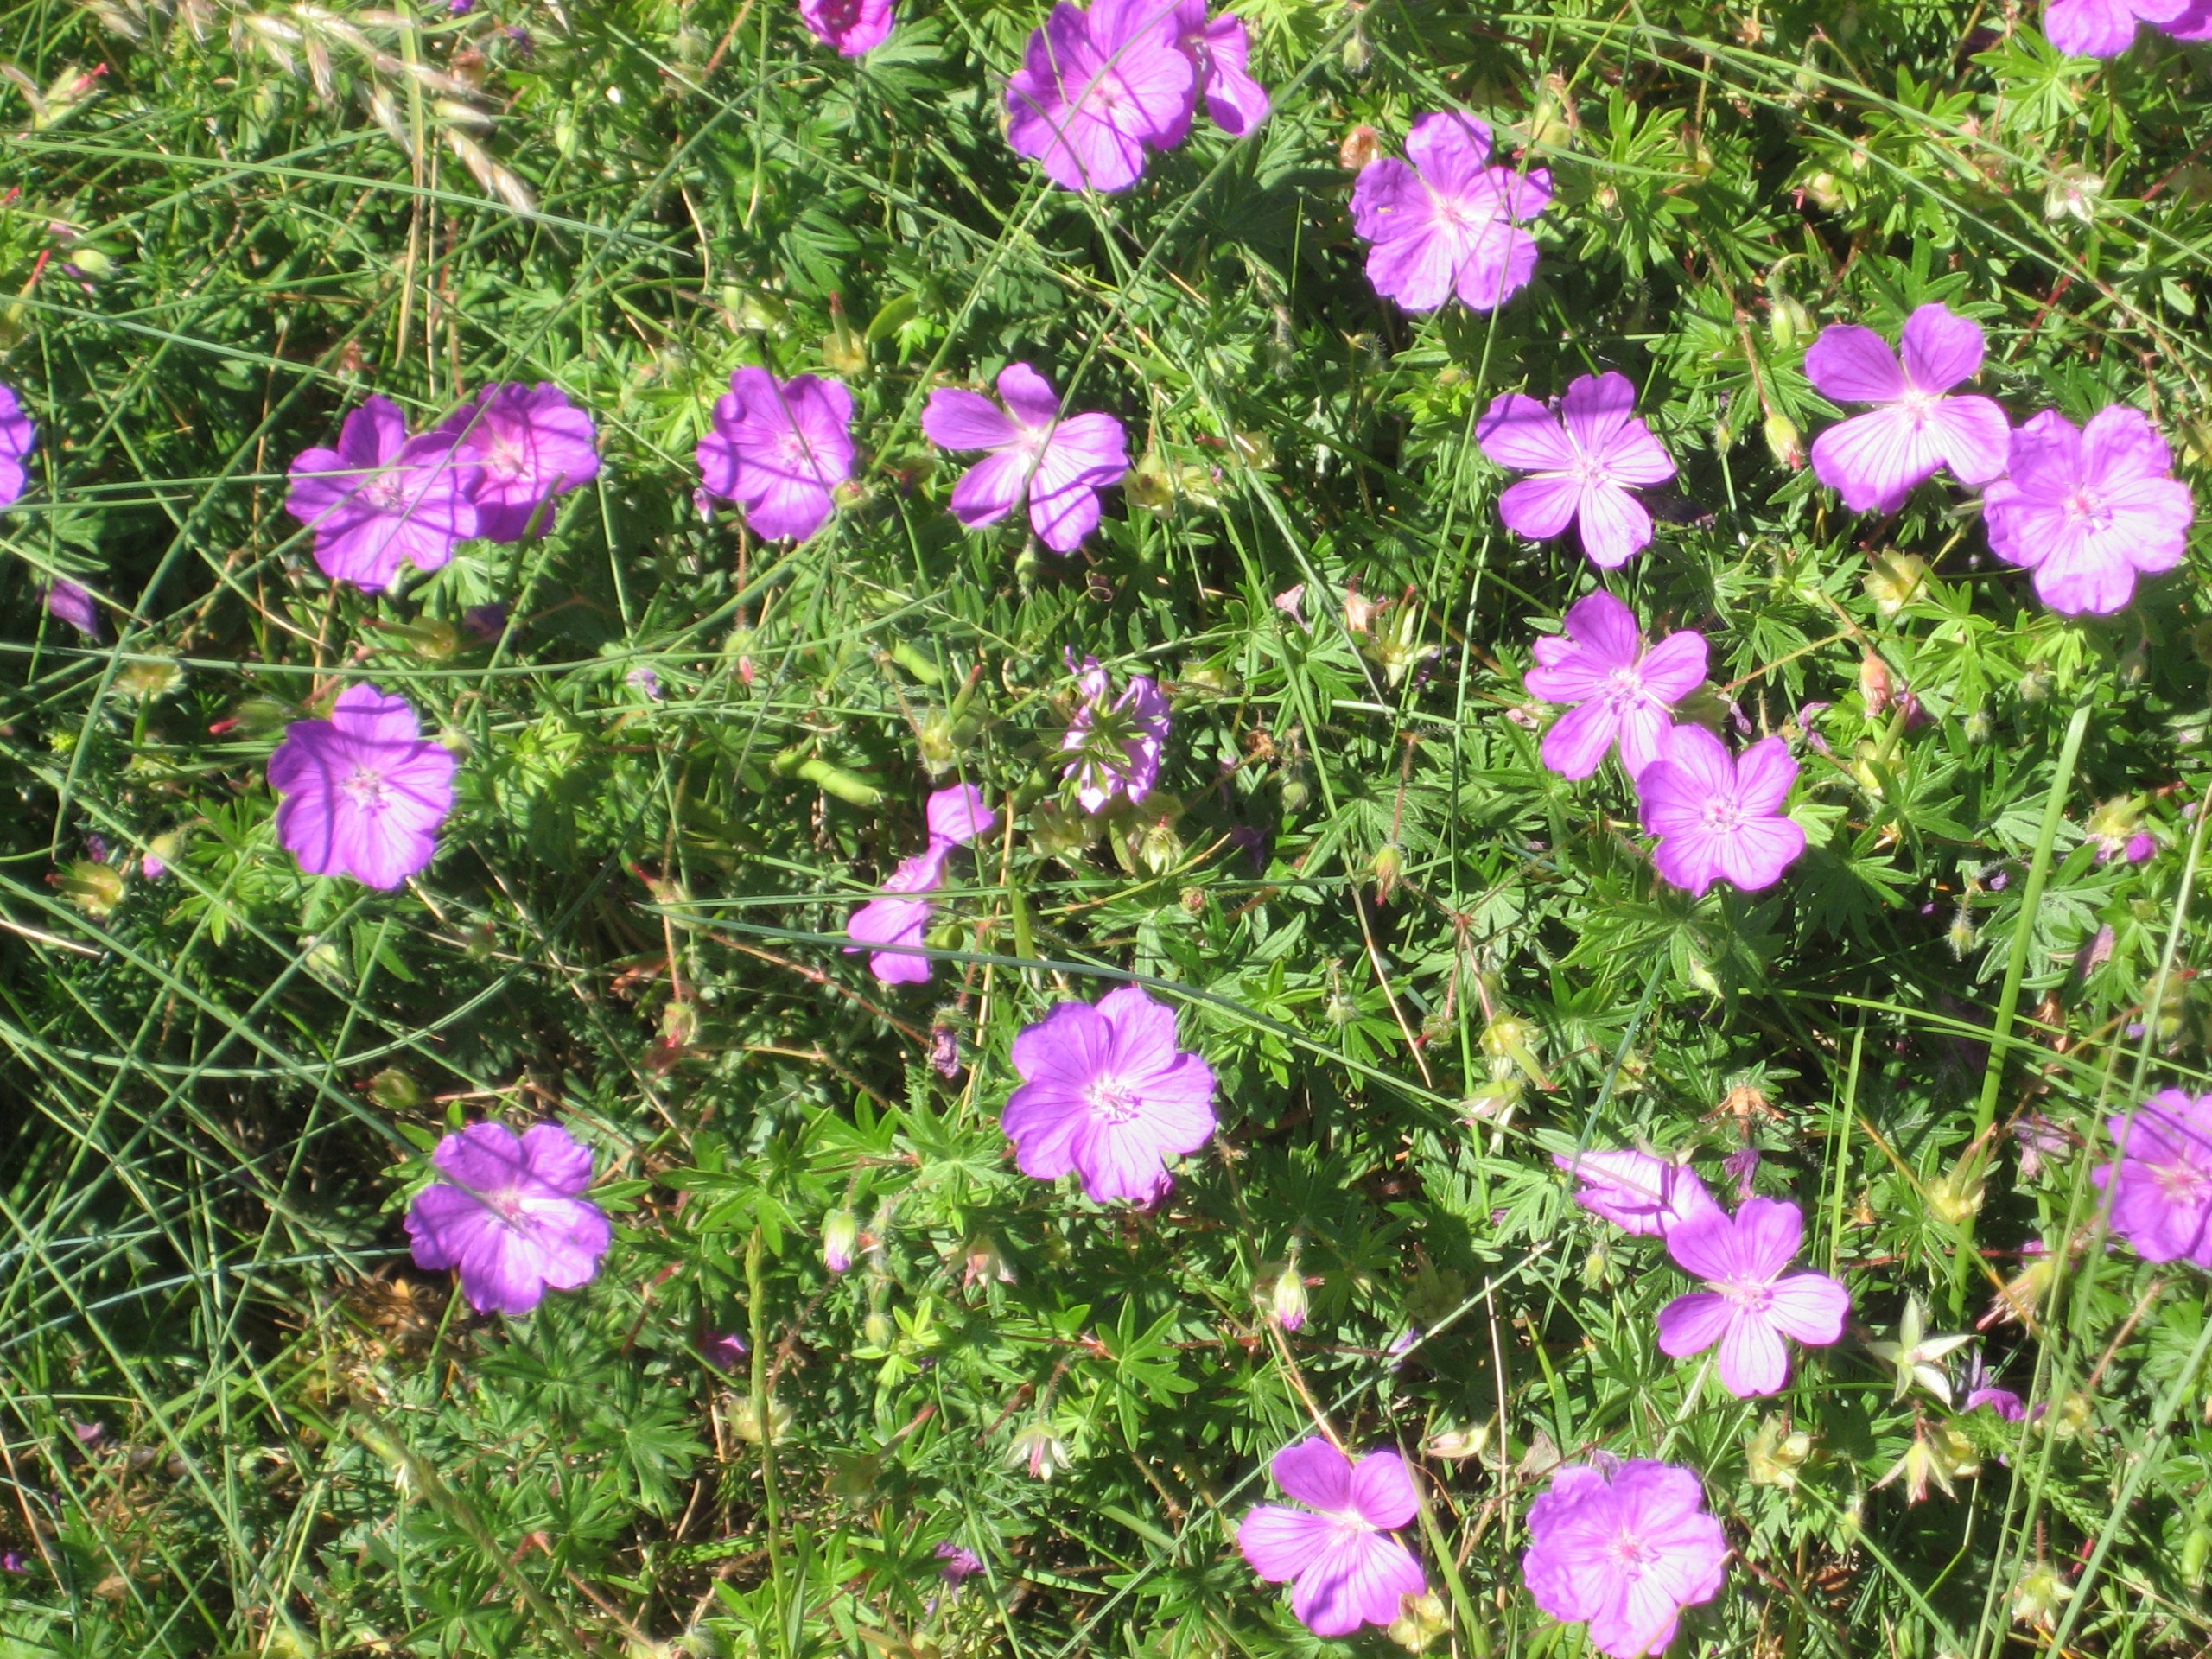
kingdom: Plantae
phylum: Tracheophyta
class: Magnoliopsida
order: Geraniales
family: Geraniaceae
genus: Geranium
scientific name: Geranium sanguineum
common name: Blodrød storkenæb
